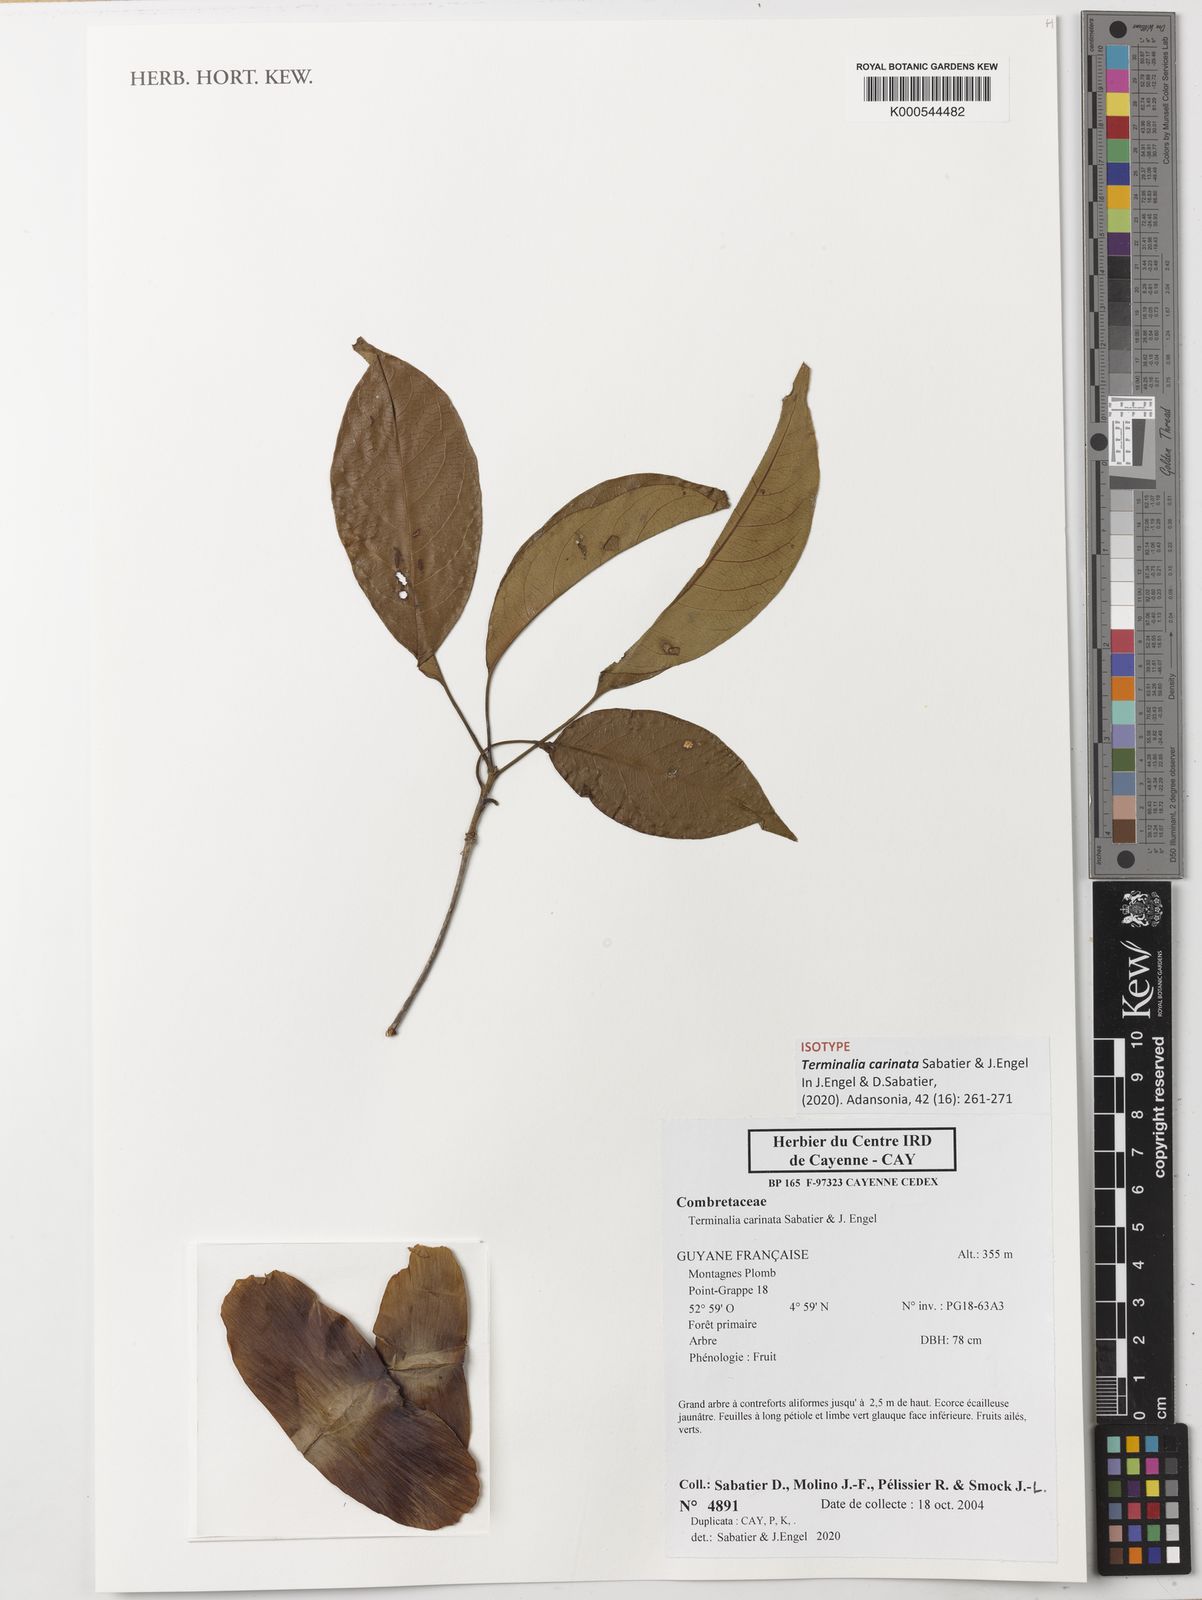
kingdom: Plantae
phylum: Tracheophyta
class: Magnoliopsida
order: Myrtales
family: Combretaceae
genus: Terminalia
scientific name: Terminalia
